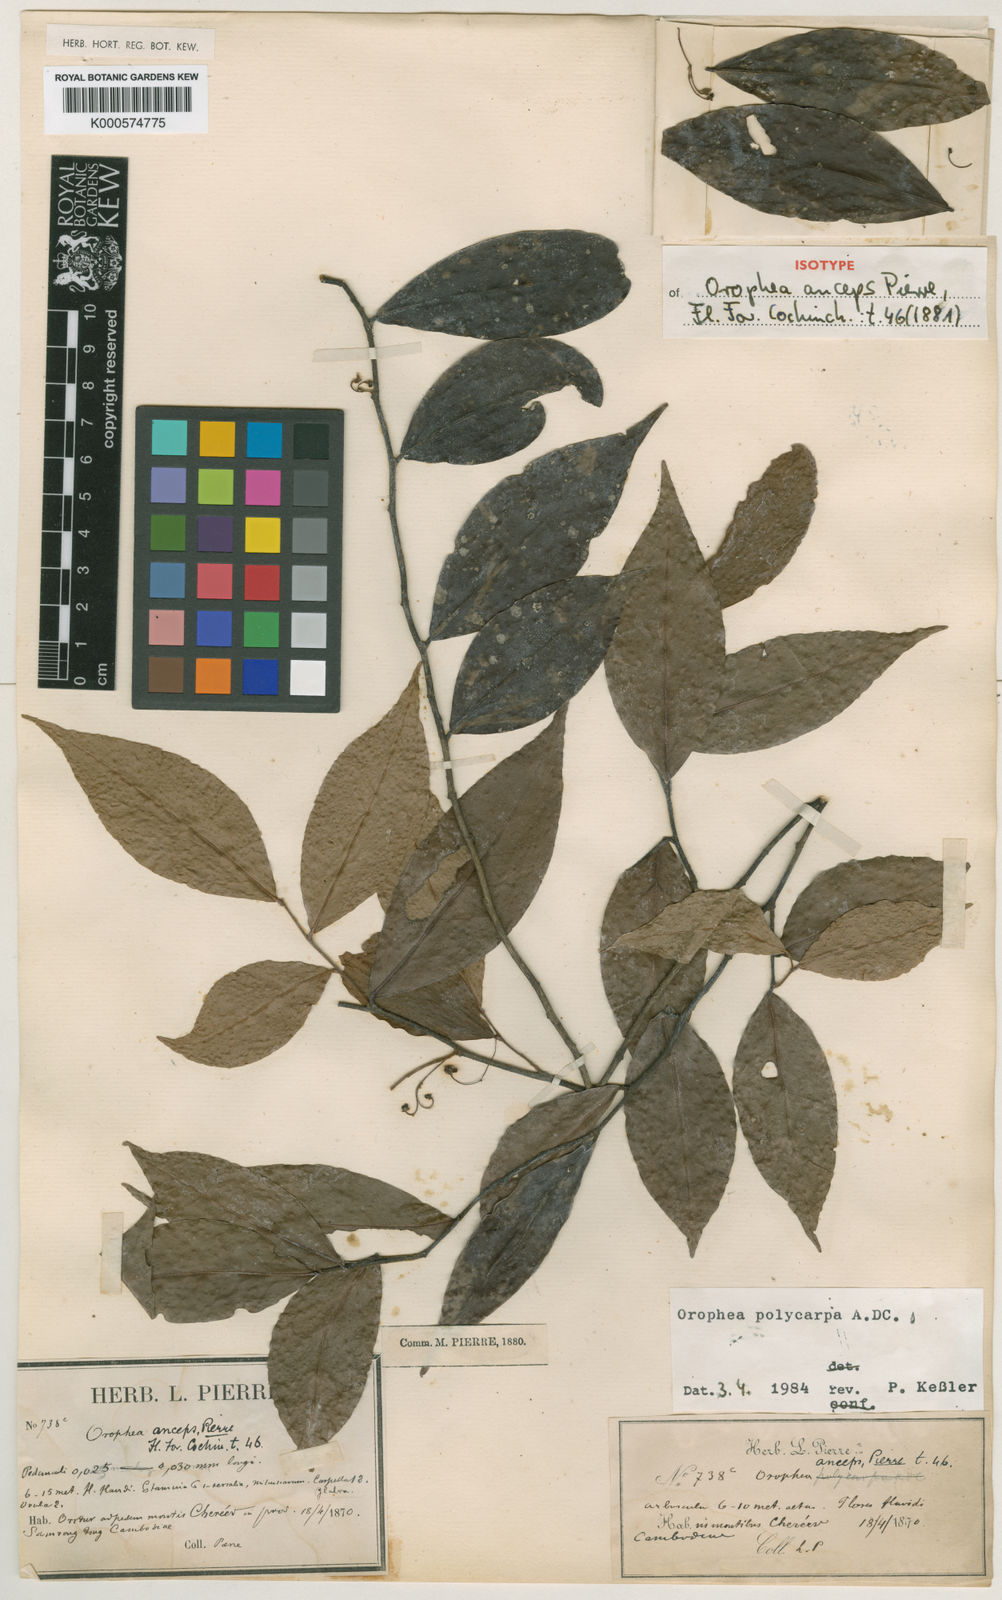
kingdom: Plantae
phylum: Tracheophyta
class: Magnoliopsida
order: Magnoliales
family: Annonaceae
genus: Orophea
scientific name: Orophea polycarpa
